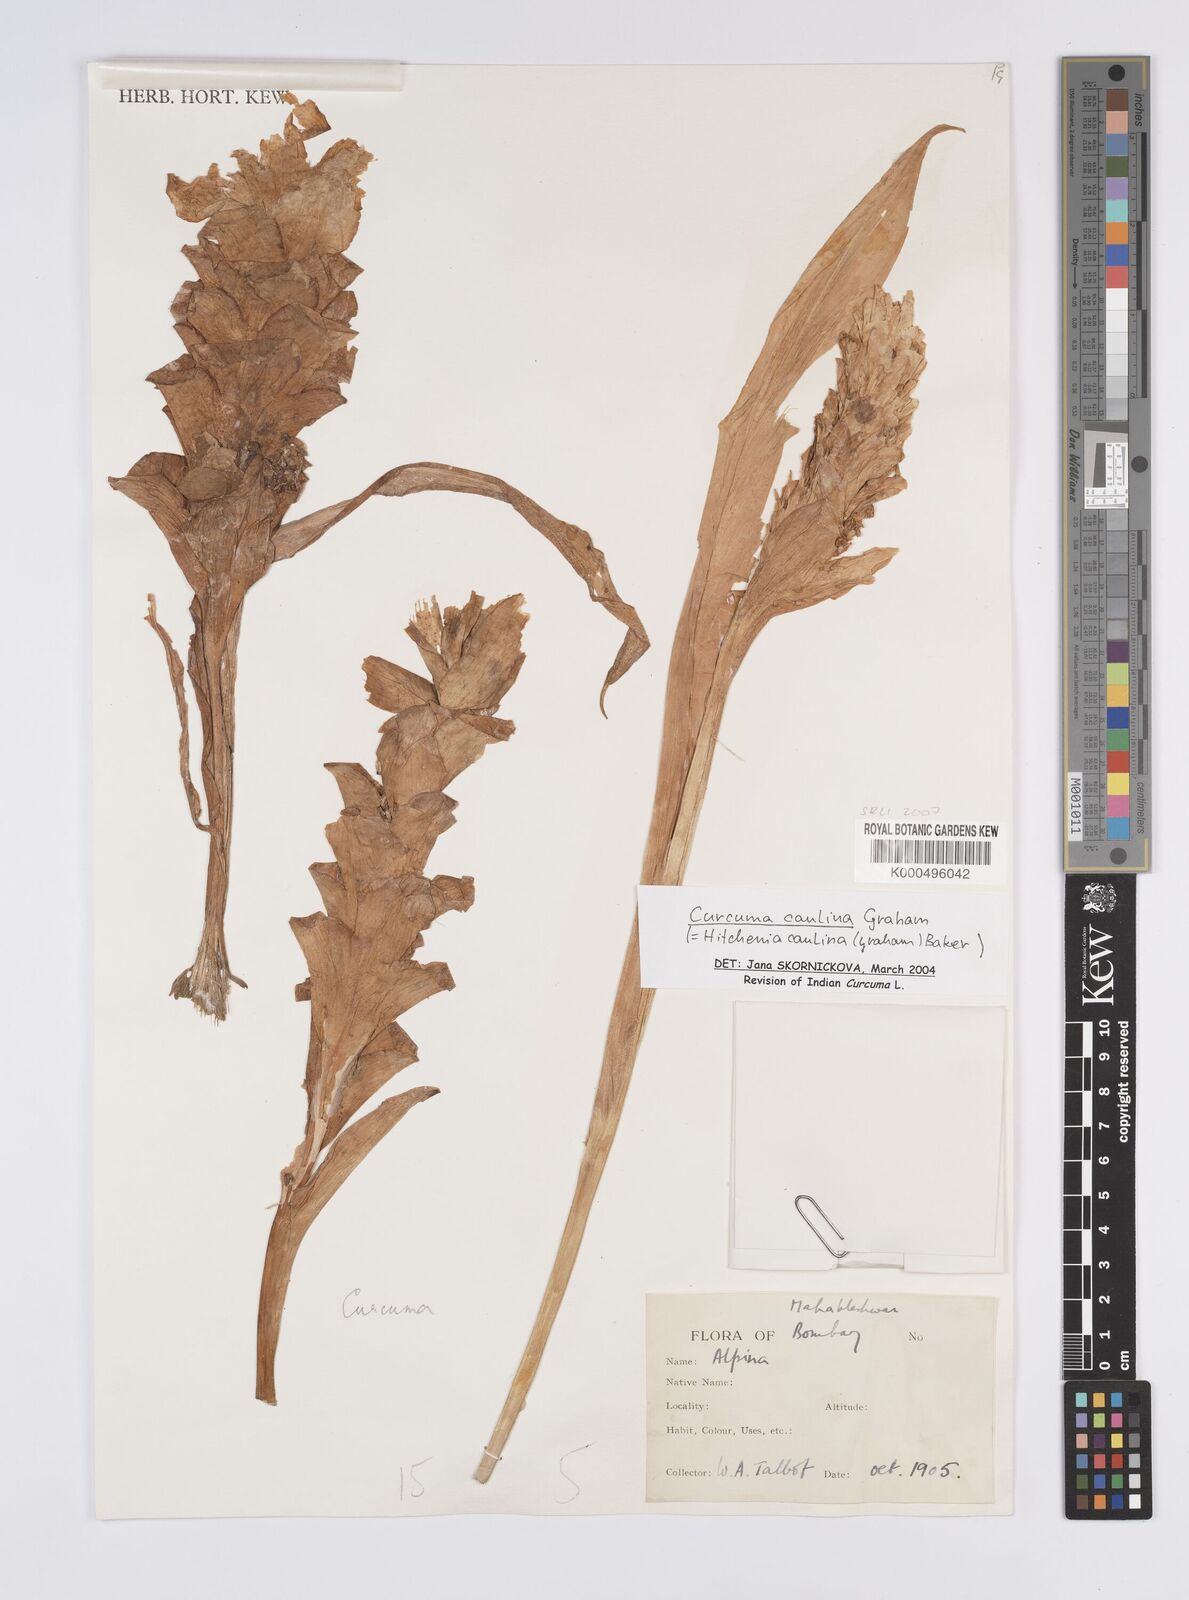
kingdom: Plantae
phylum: Tracheophyta
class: Liliopsida
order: Zingiberales
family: Zingiberaceae
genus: Curcuma
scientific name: Curcuma caulina
